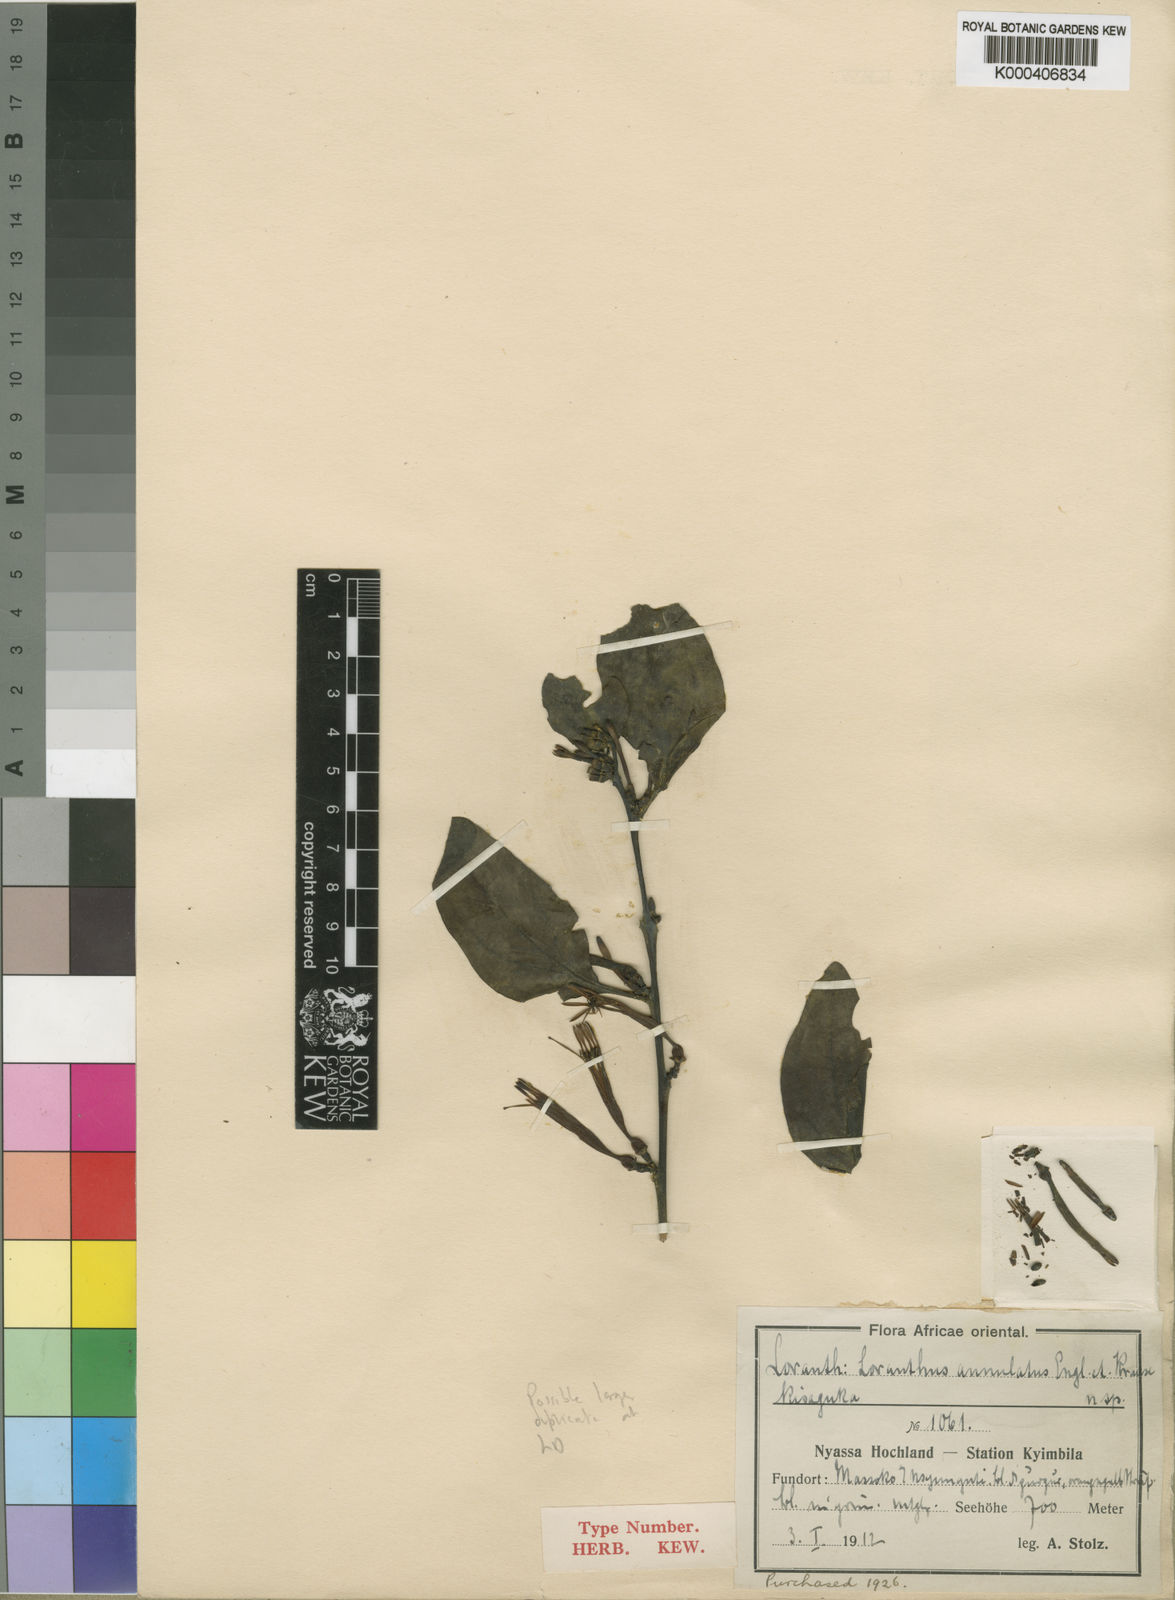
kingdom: Plantae
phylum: Tracheophyta
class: Magnoliopsida
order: Santalales
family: Loranthaceae
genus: Agelanthus
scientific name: Agelanthus fuellebornii
